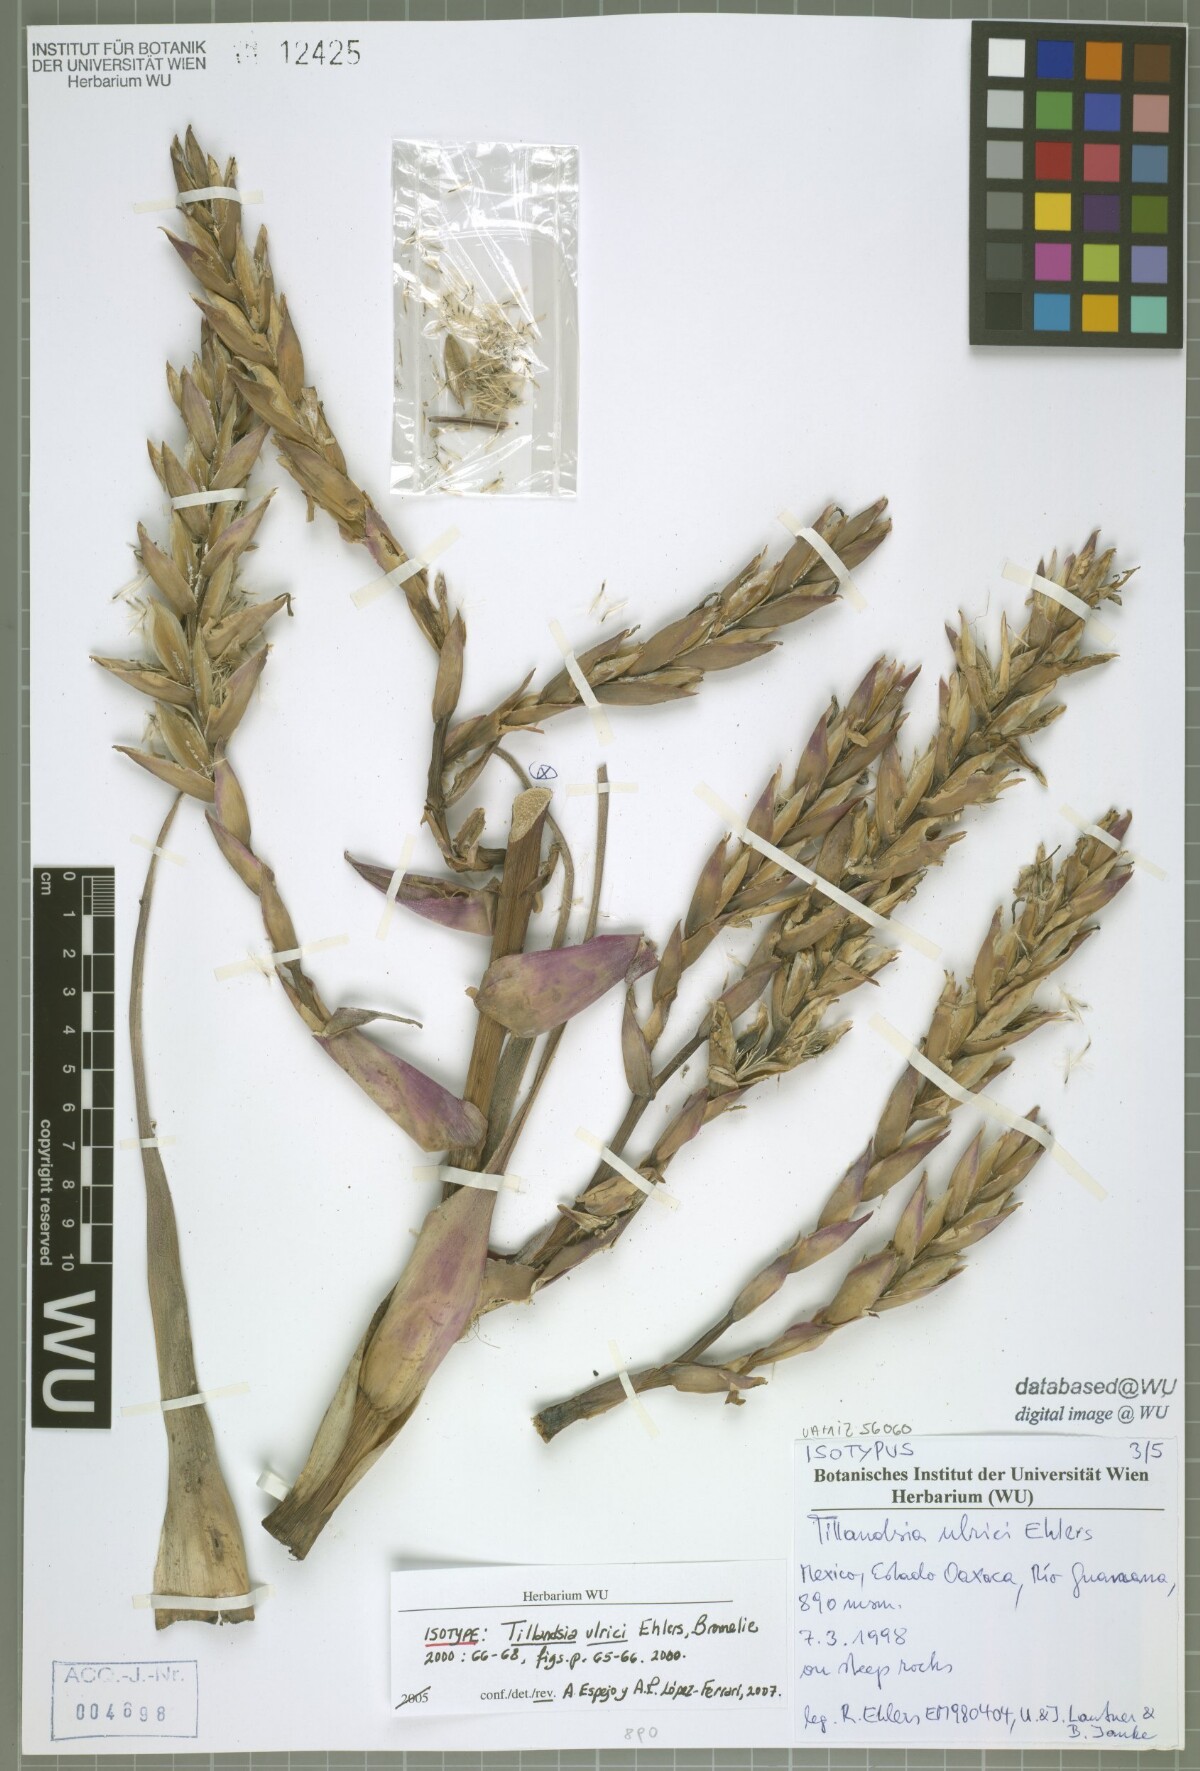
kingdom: Plantae
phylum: Tracheophyta
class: Liliopsida
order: Poales
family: Bromeliaceae
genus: Tillandsia
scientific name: Tillandsia ulrici
